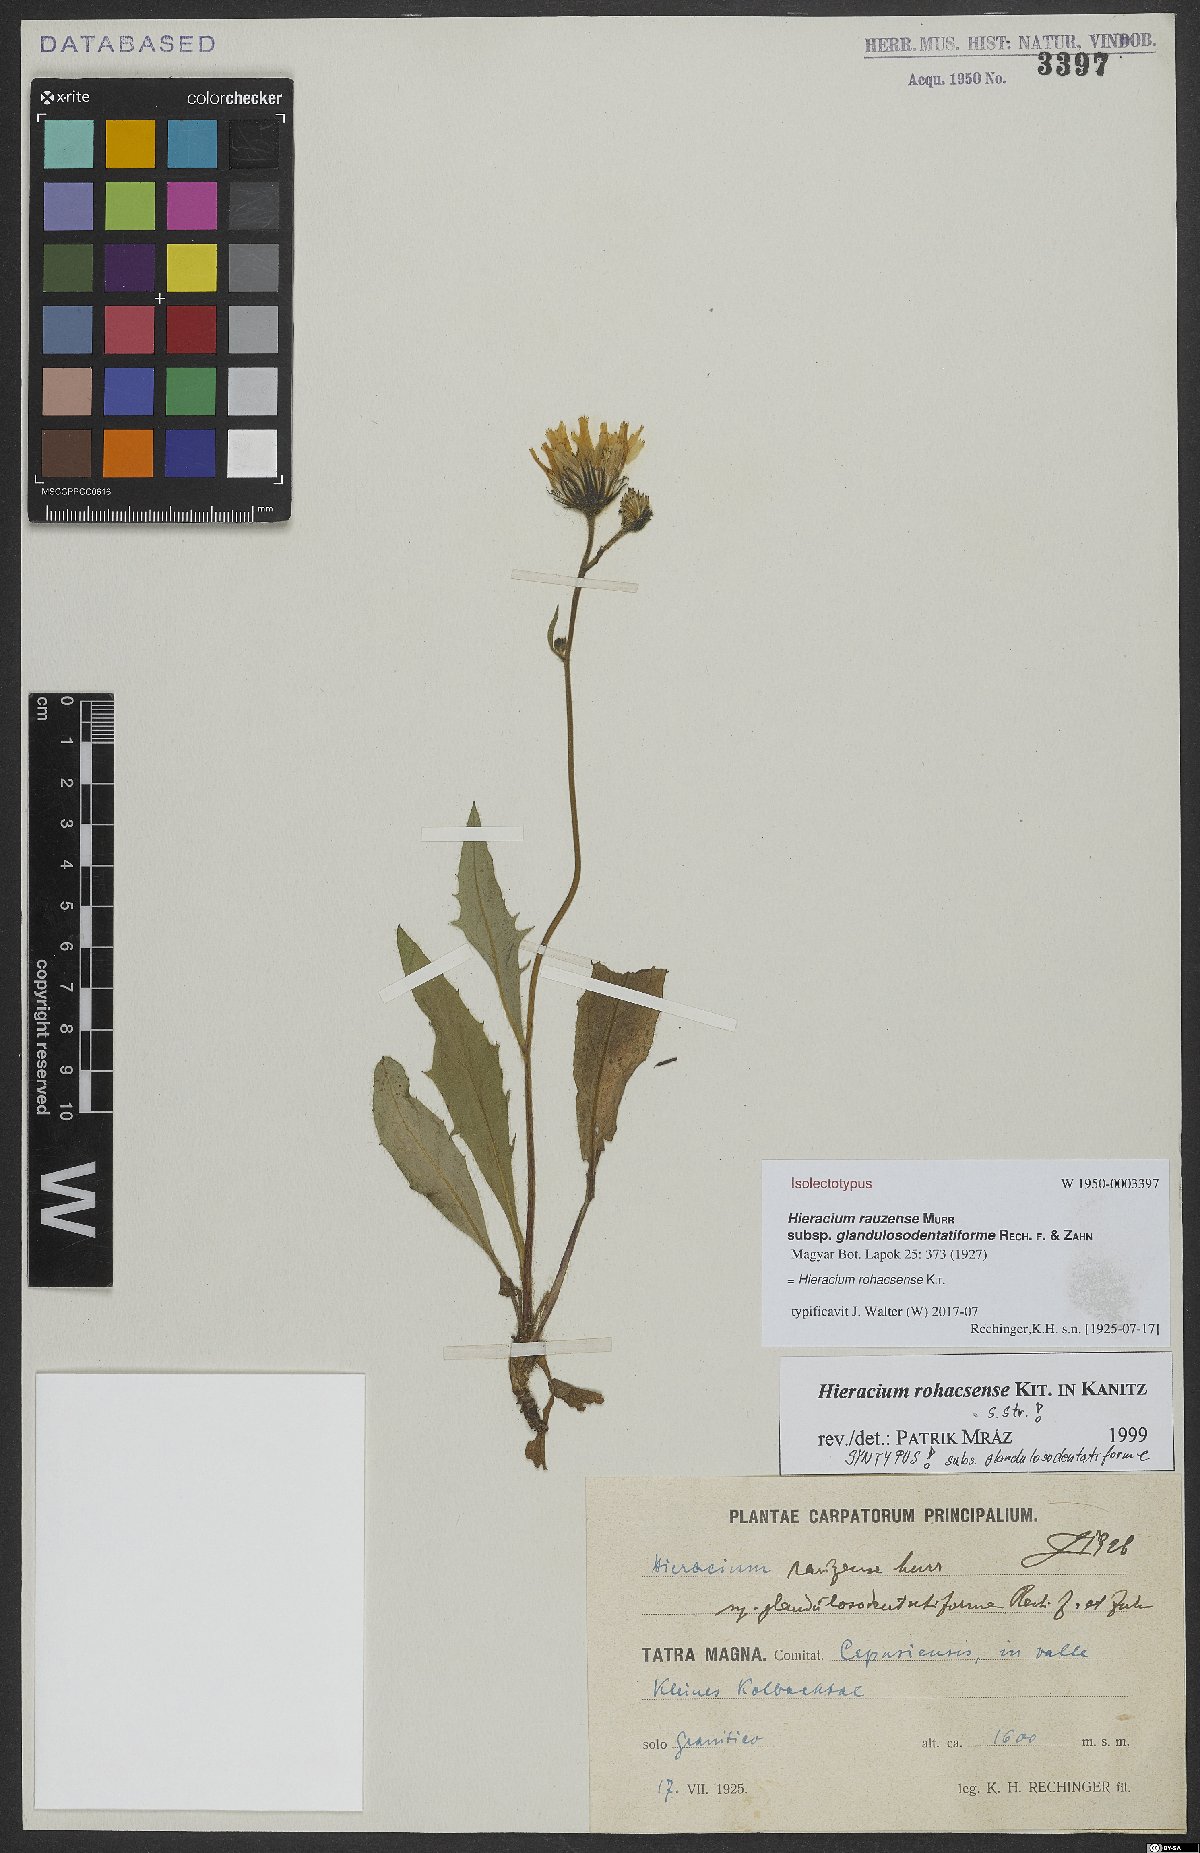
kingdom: Plantae
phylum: Tracheophyta
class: Magnoliopsida
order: Asterales
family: Asteraceae
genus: Hieracium
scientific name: Hieracium rohacsense
